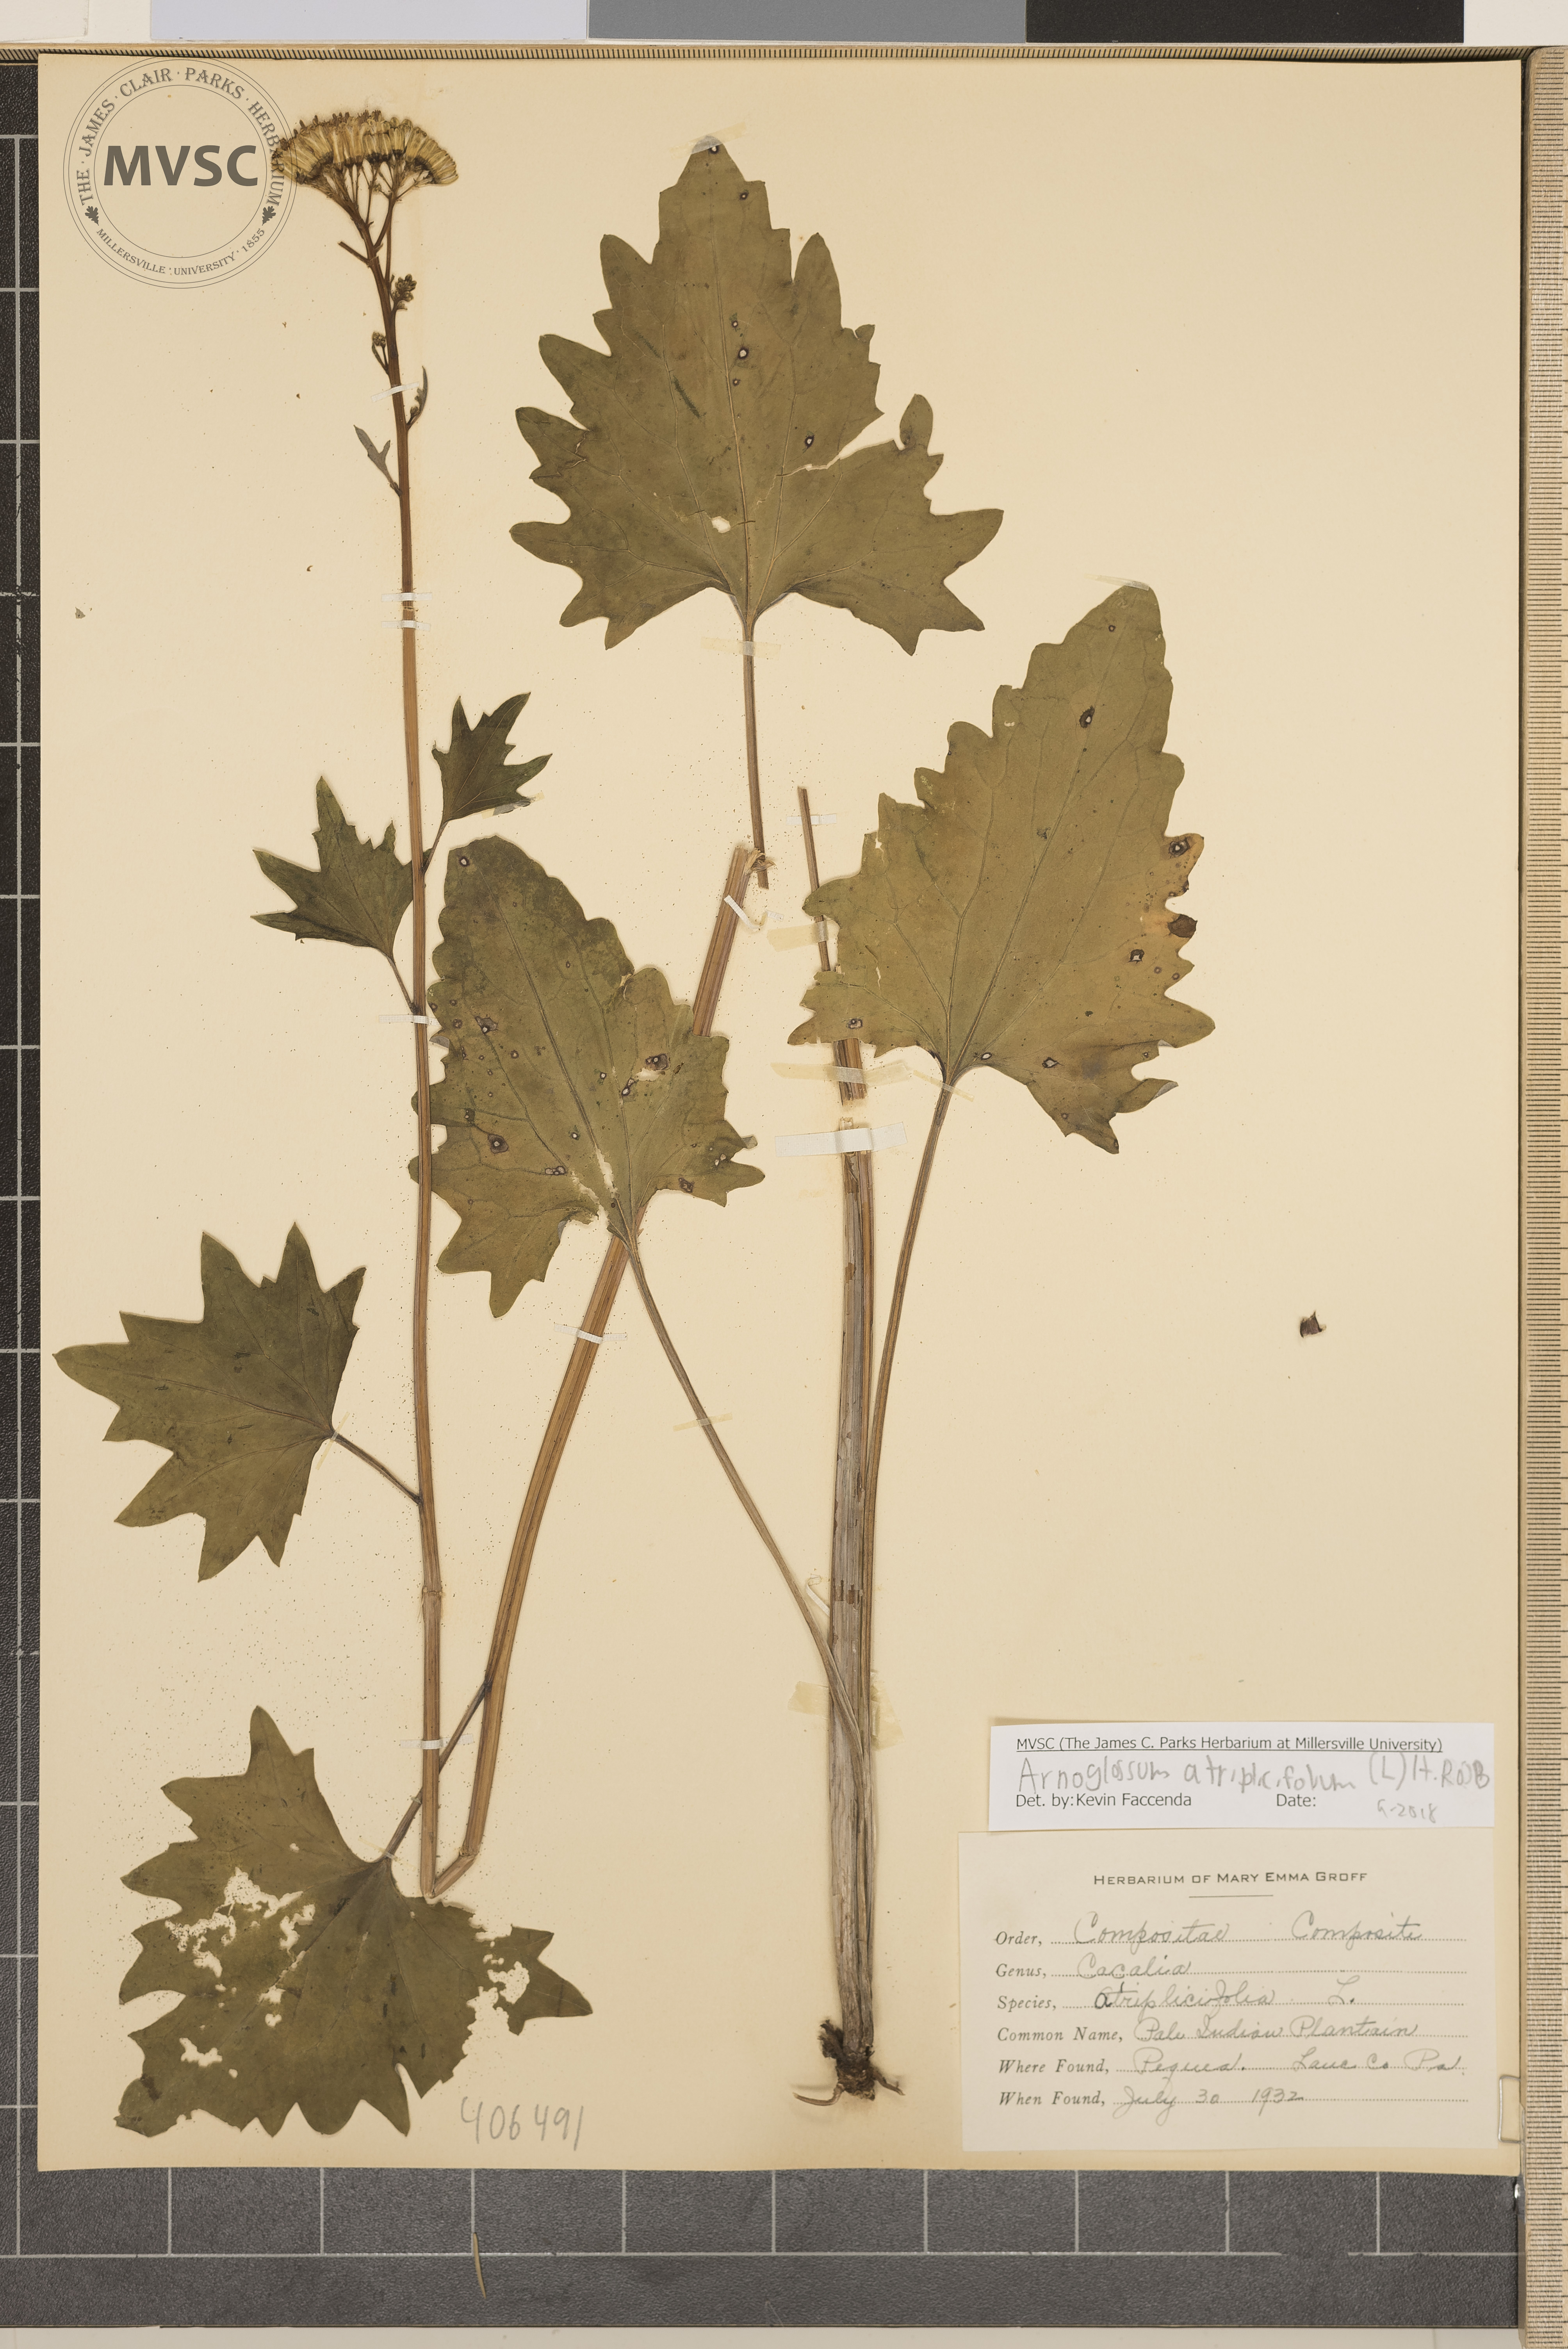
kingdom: Plantae
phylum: Tracheophyta
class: Magnoliopsida
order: Asterales
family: Asteraceae
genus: Arnoglossum
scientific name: Arnoglossum atriplicifolium
